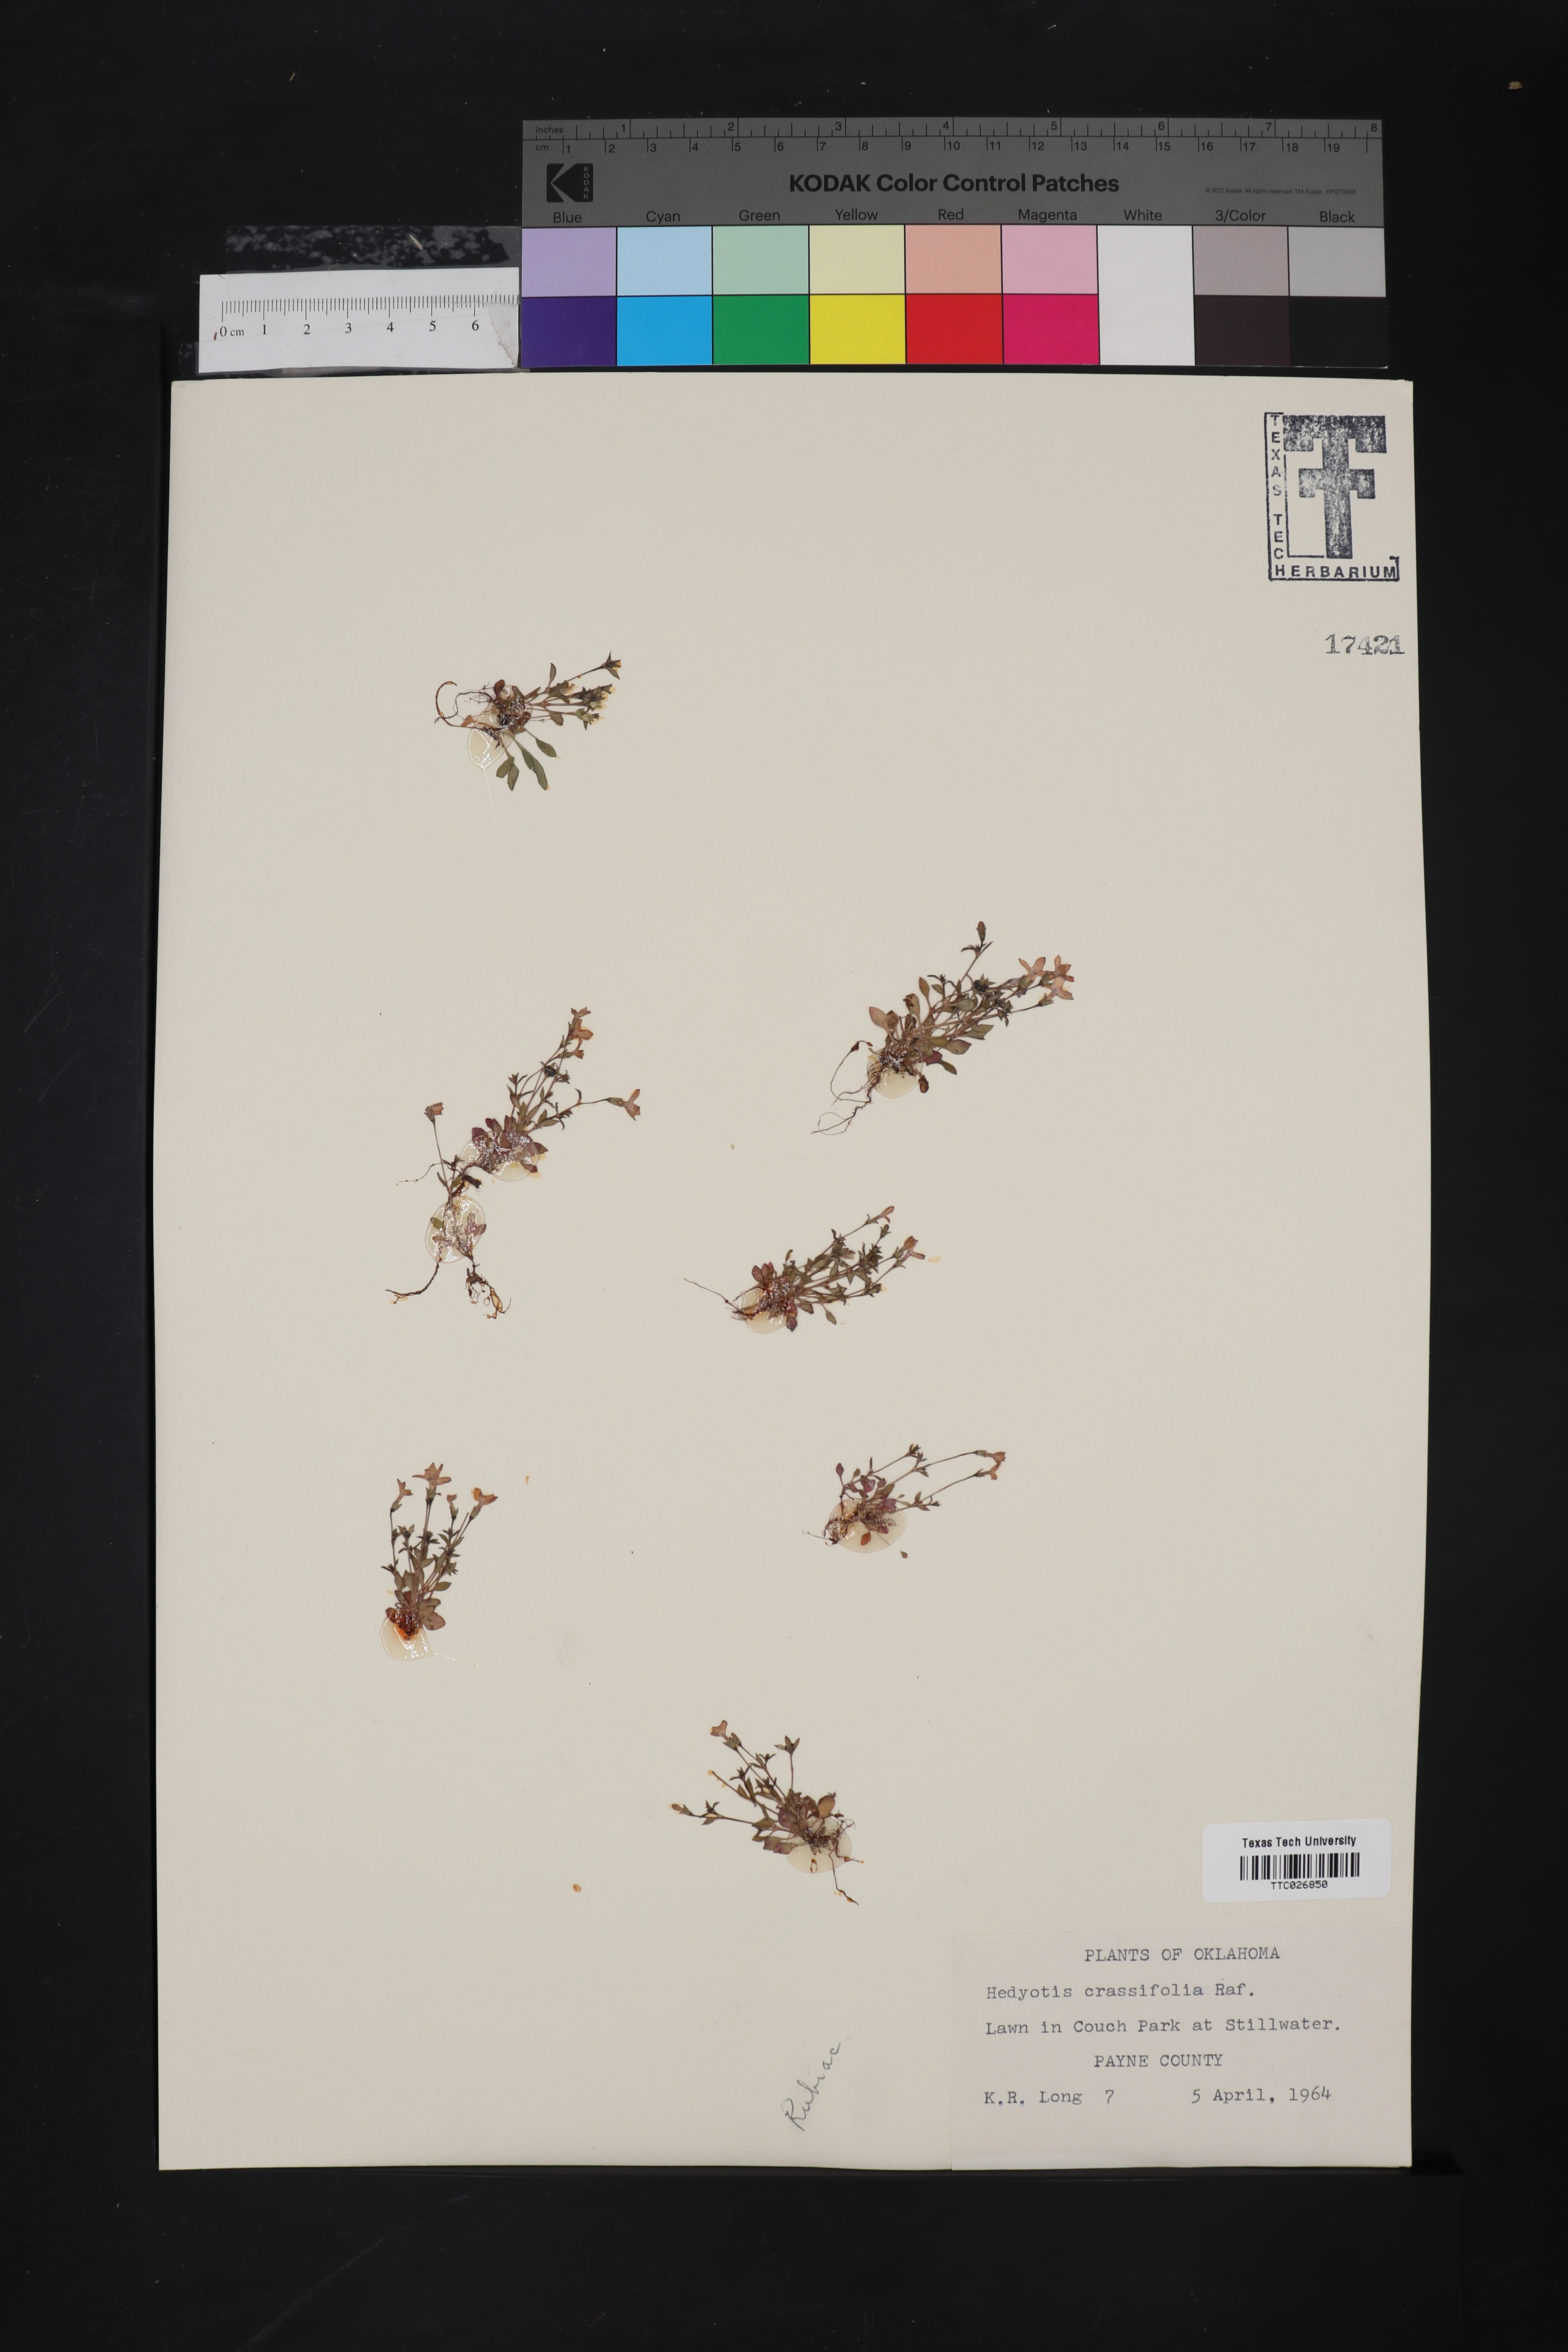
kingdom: Plantae
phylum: Tracheophyta
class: Magnoliopsida
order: Gentianales
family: Rubiaceae
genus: Houstonia
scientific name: Houstonia pusilla
